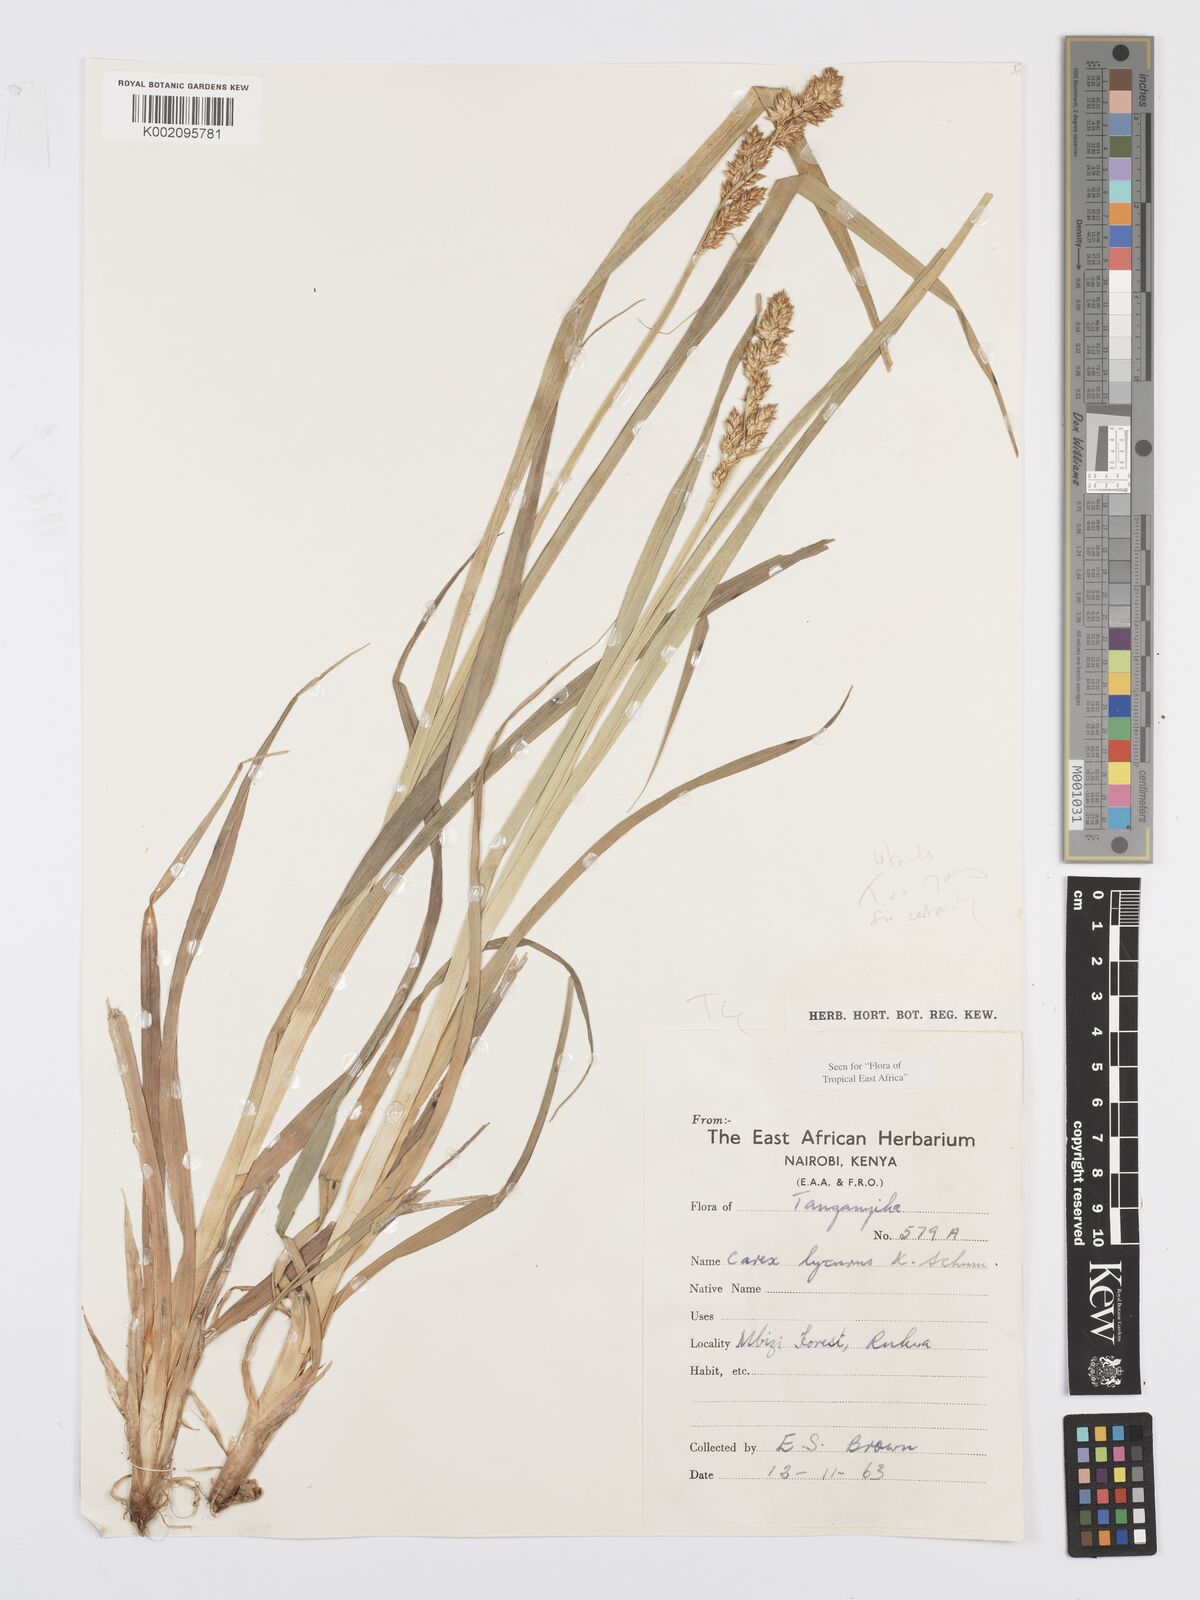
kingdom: Plantae
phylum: Tracheophyta
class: Liliopsida
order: Poales
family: Cyperaceae
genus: Carex
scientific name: Carex lycurus
